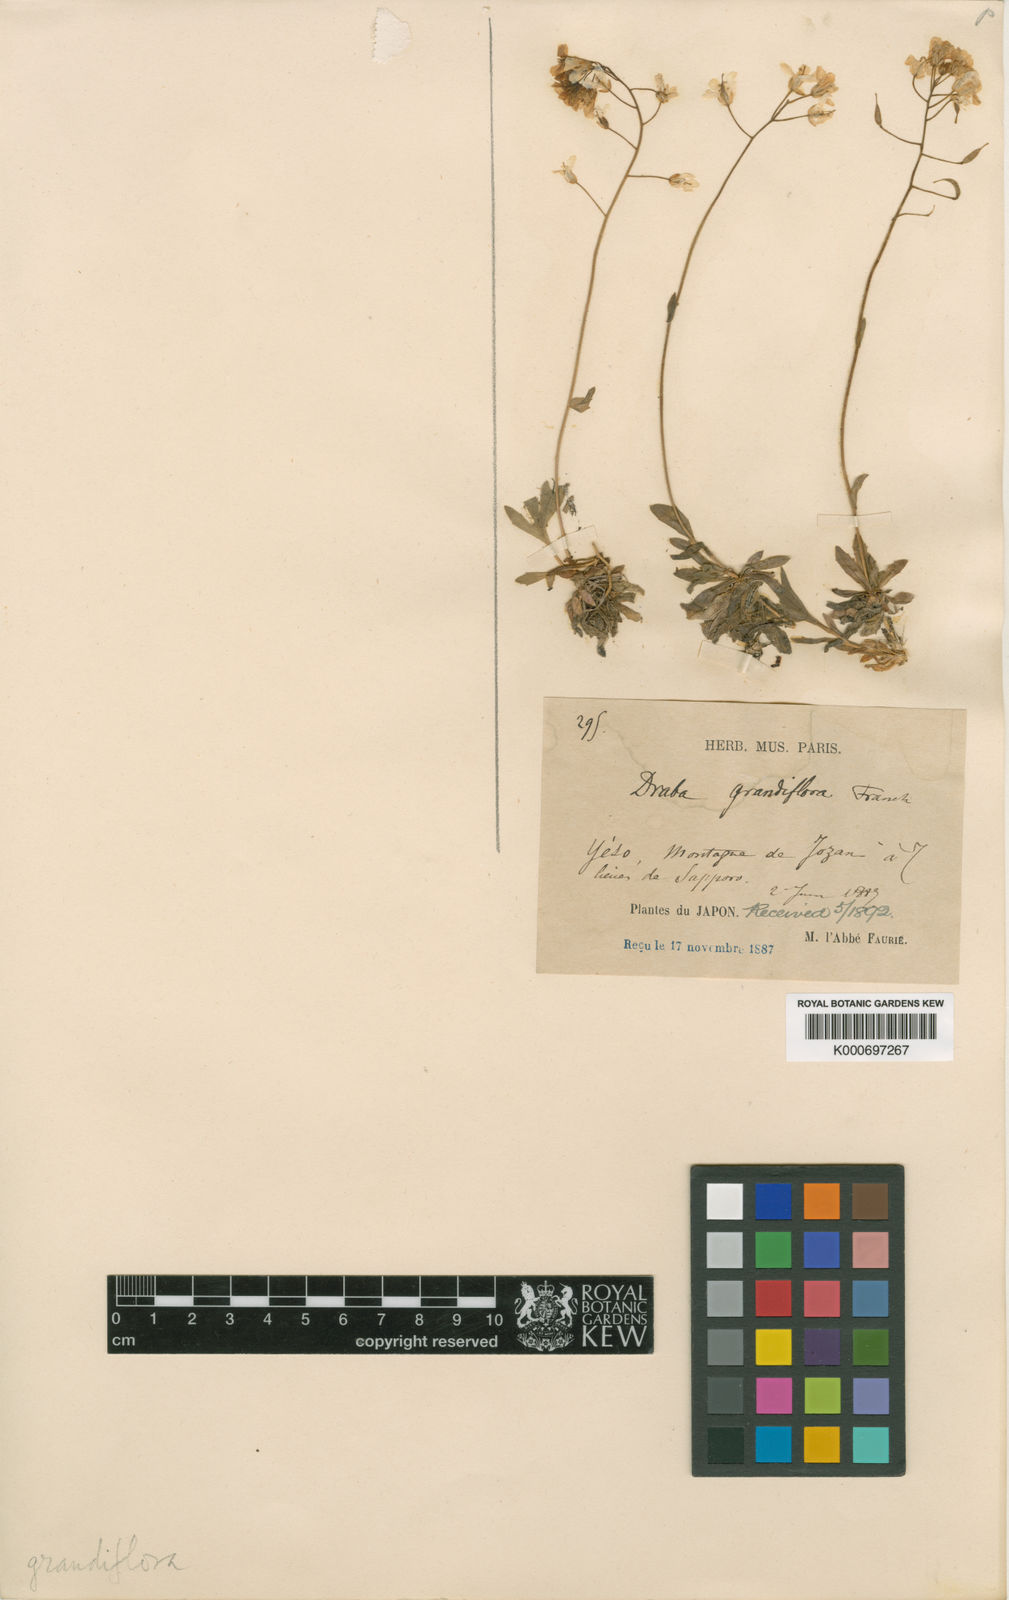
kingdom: Plantae
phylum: Tracheophyta
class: Magnoliopsida
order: Brassicales
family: Brassicaceae
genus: Draba
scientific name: Draba sachalinensis
